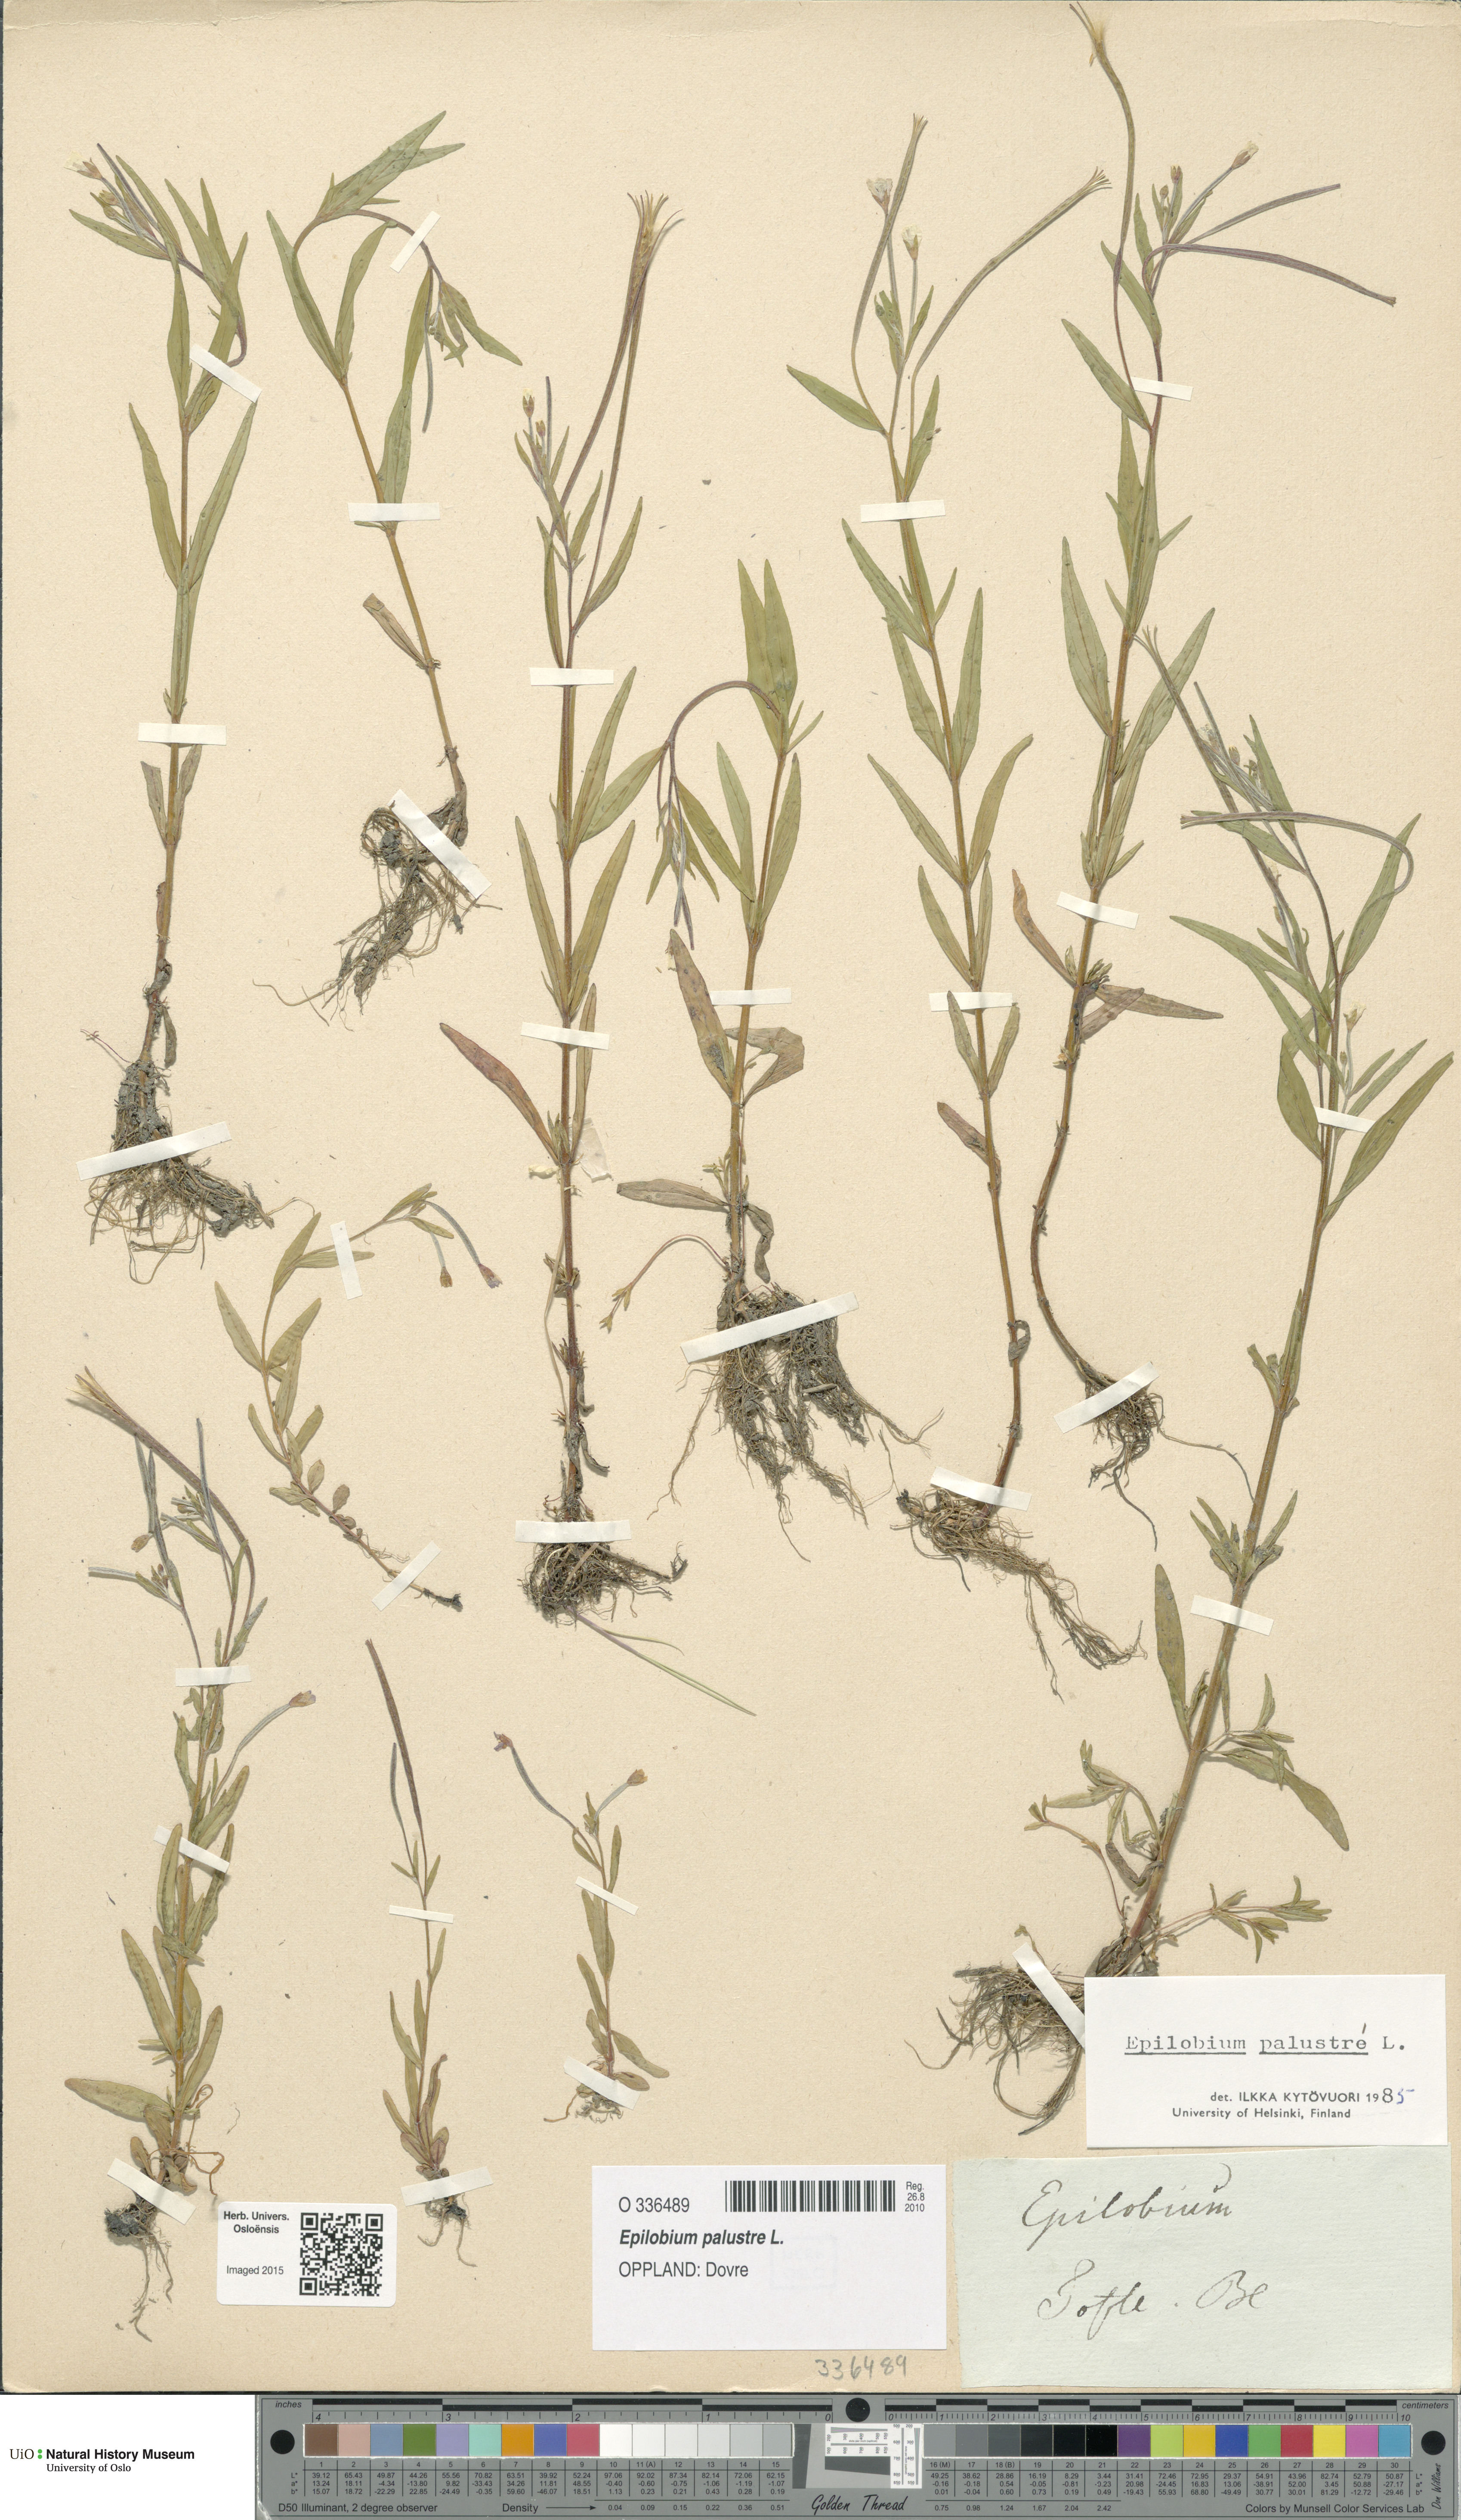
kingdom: Plantae
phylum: Tracheophyta
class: Magnoliopsida
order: Myrtales
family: Onagraceae
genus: Epilobium
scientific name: Epilobium palustre
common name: Marsh willowherb
